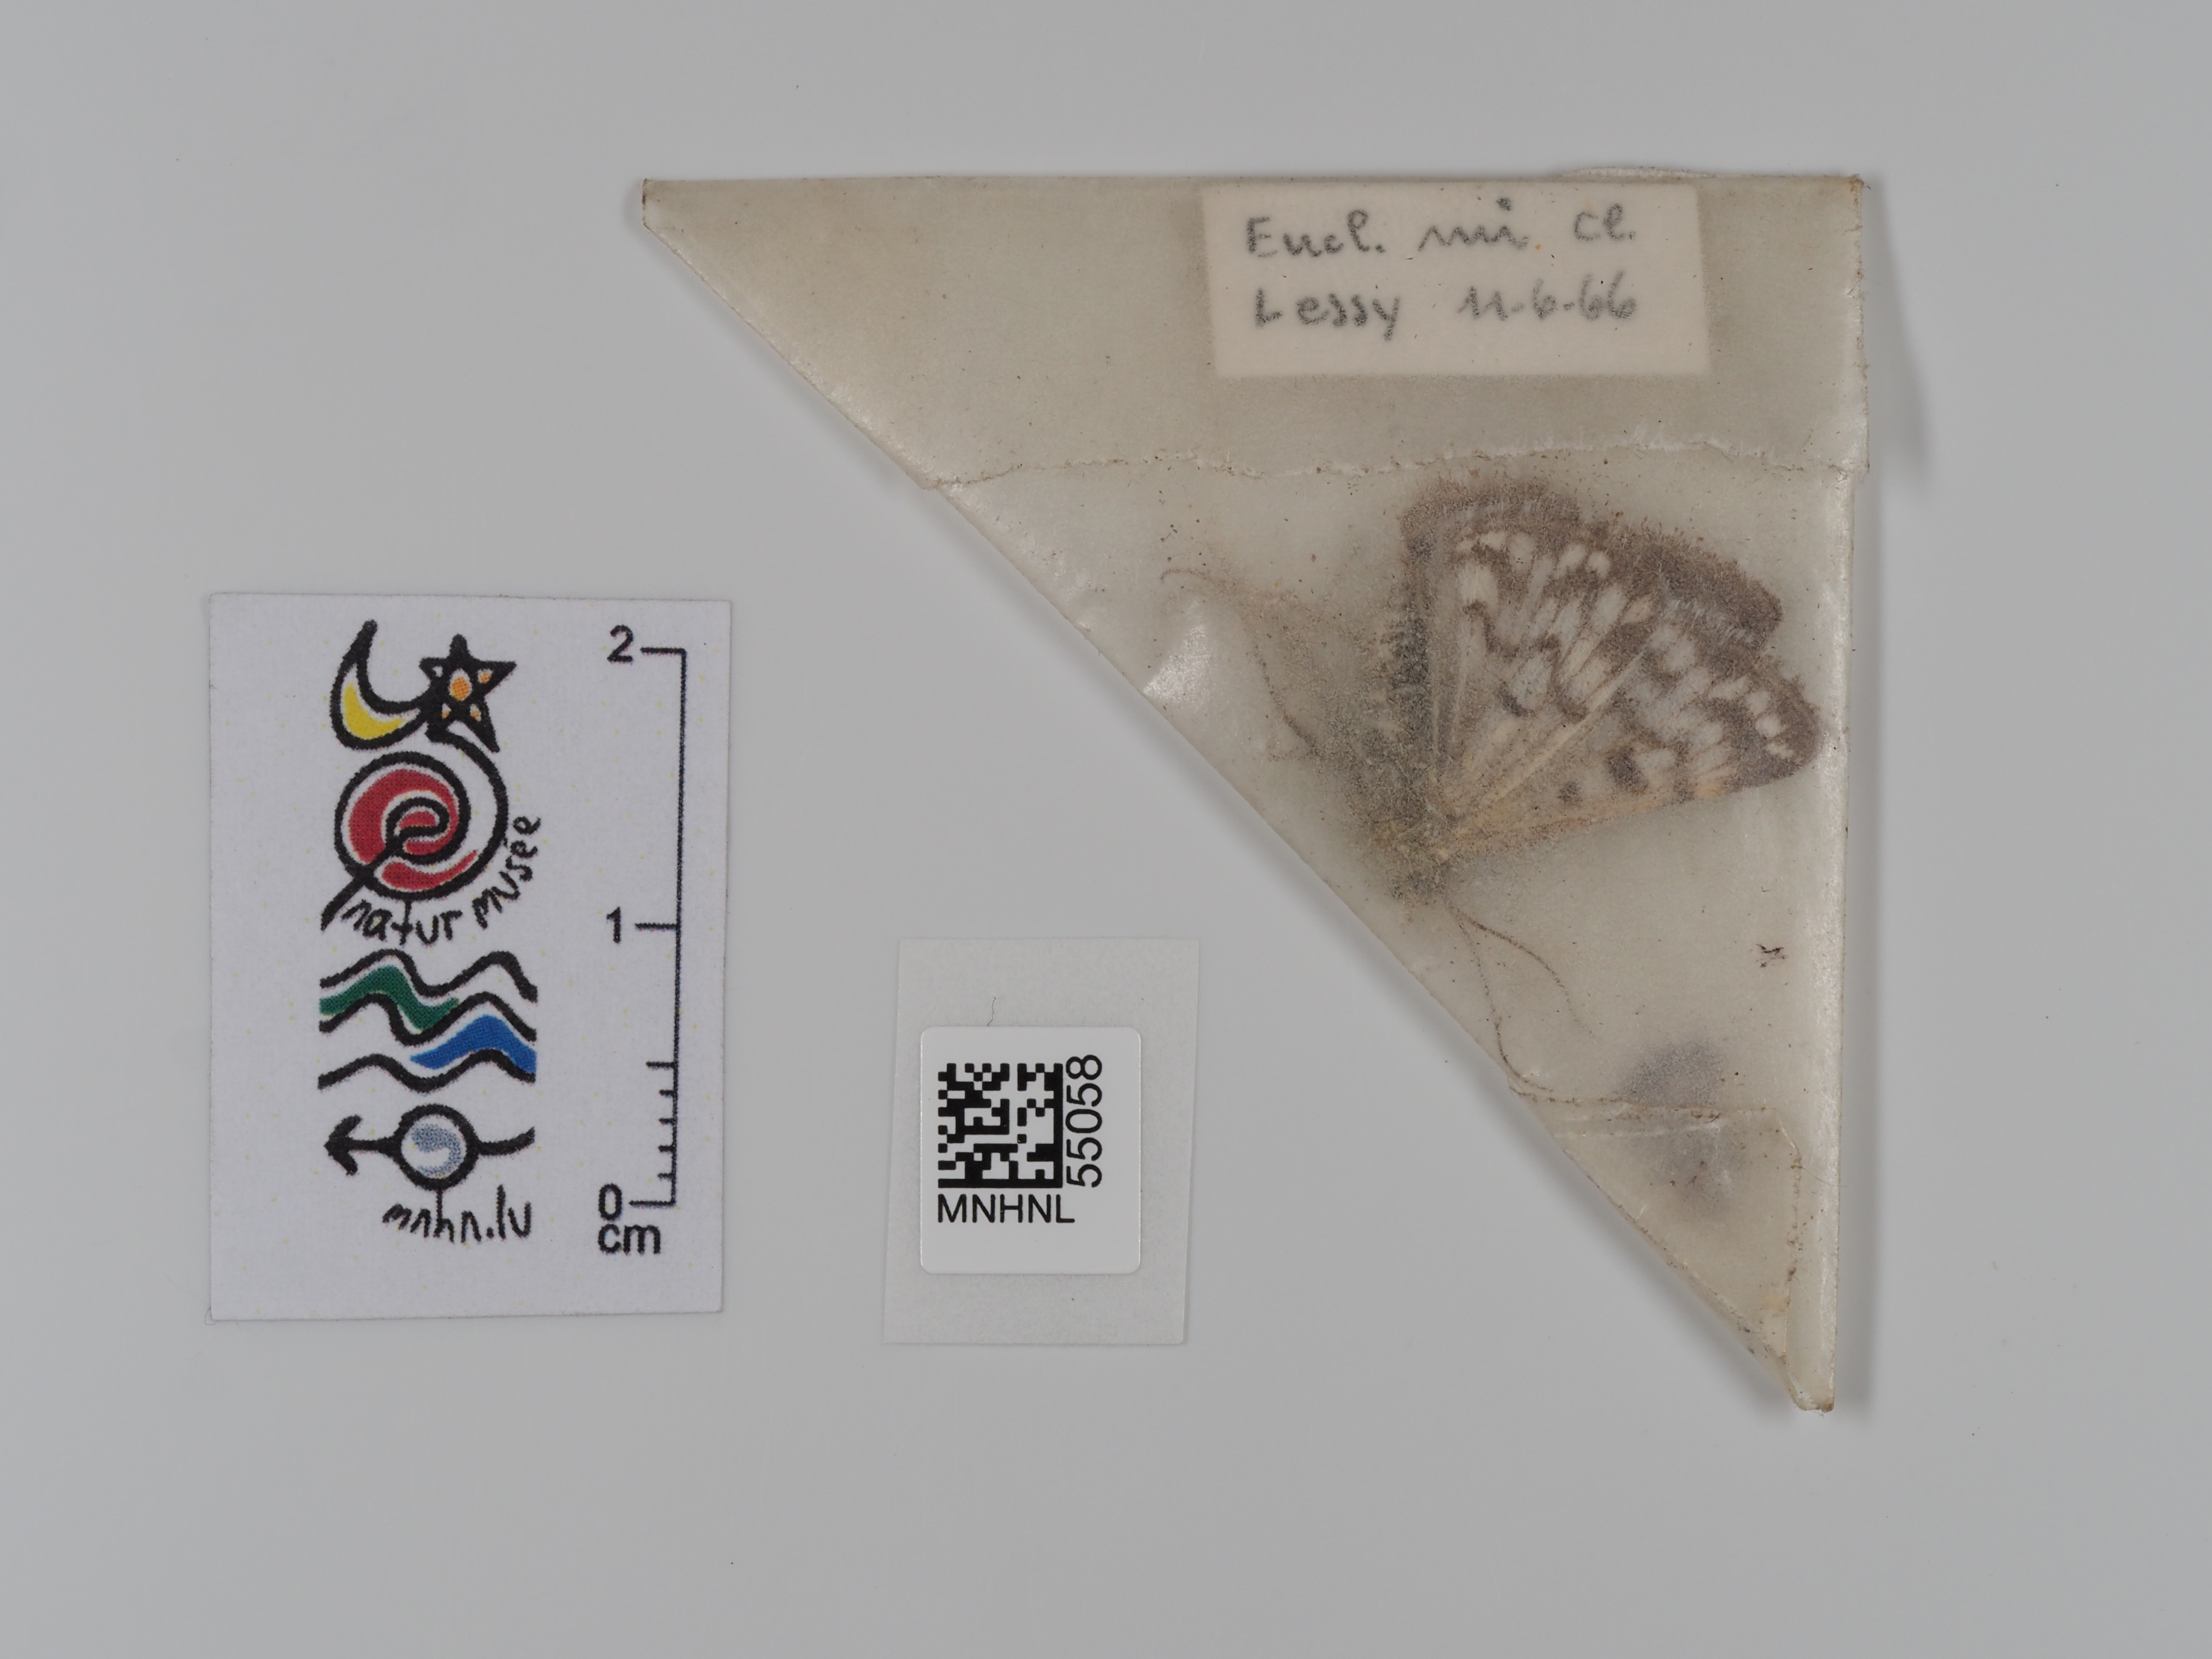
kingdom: Animalia
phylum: Arthropoda
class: Insecta
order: Lepidoptera
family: Erebidae
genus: Euclidia
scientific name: Euclidia mi
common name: Mother shipton
